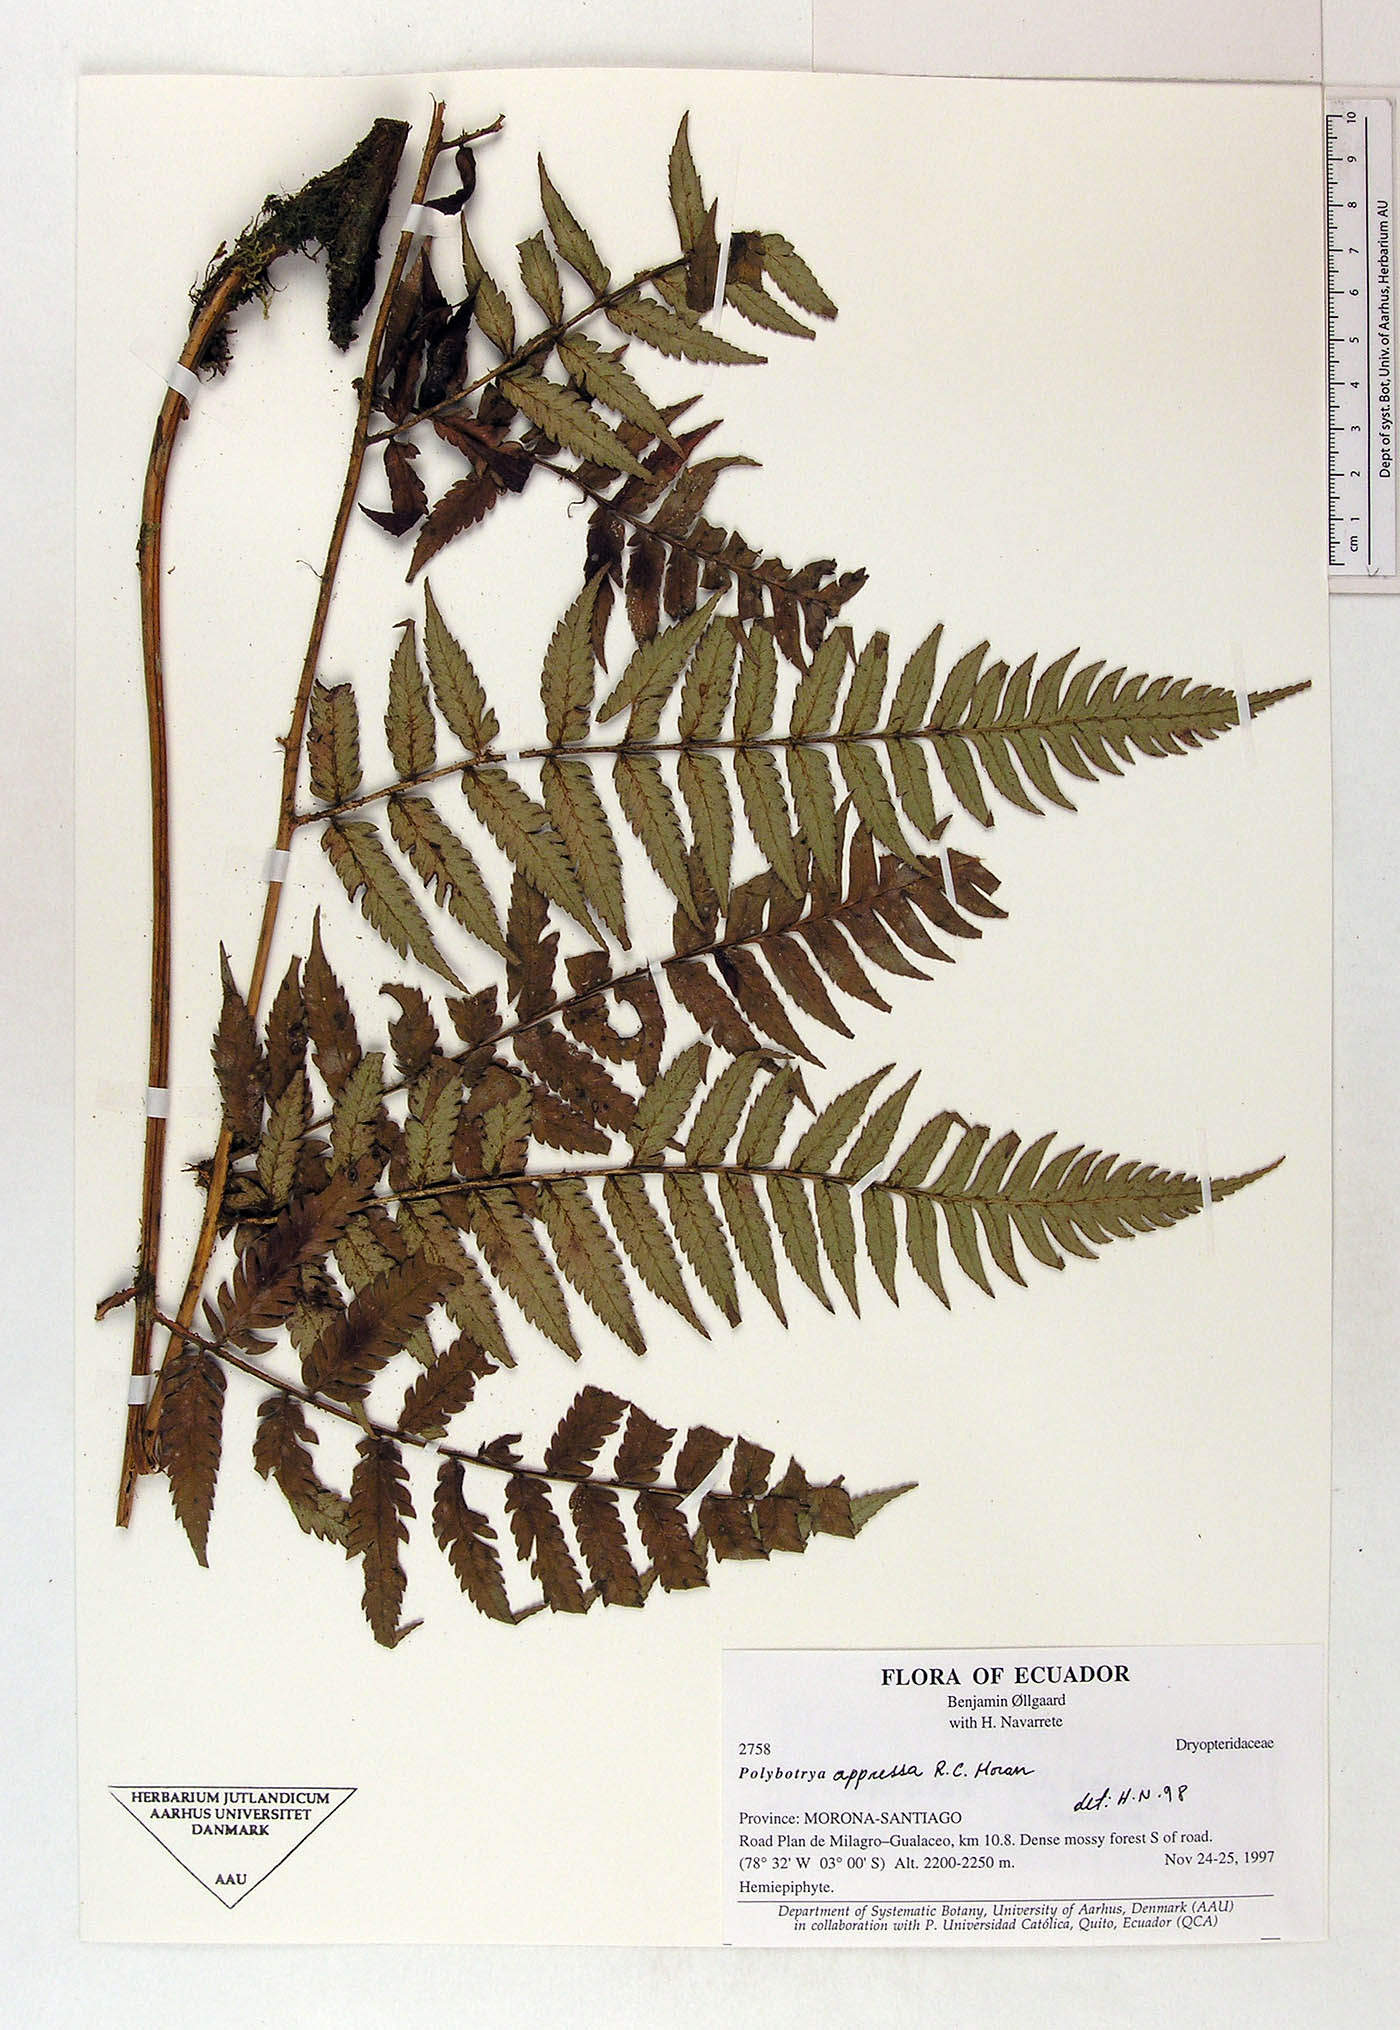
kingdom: Plantae
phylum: Tracheophyta
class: Polypodiopsida
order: Polypodiales
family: Dryopteridaceae
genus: Polybotrya
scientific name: Polybotrya
